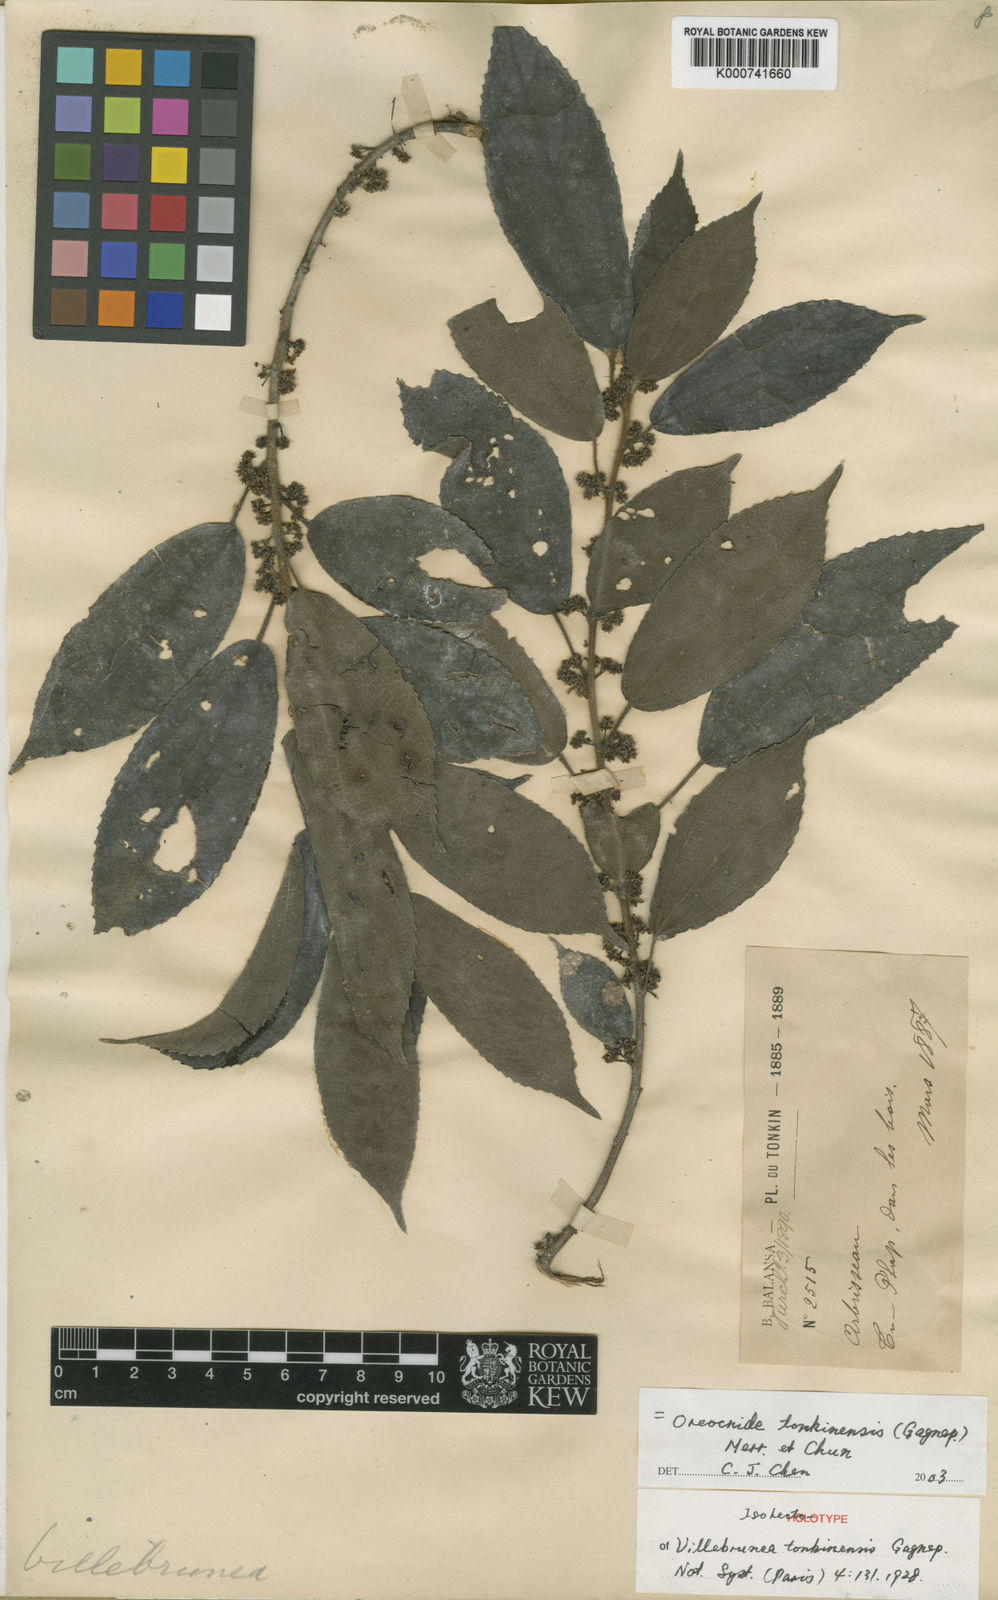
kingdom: Plantae
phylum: Tracheophyta
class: Magnoliopsida
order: Rosales
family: Urticaceae
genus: Oreocnide
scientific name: Oreocnide tonkinensis
